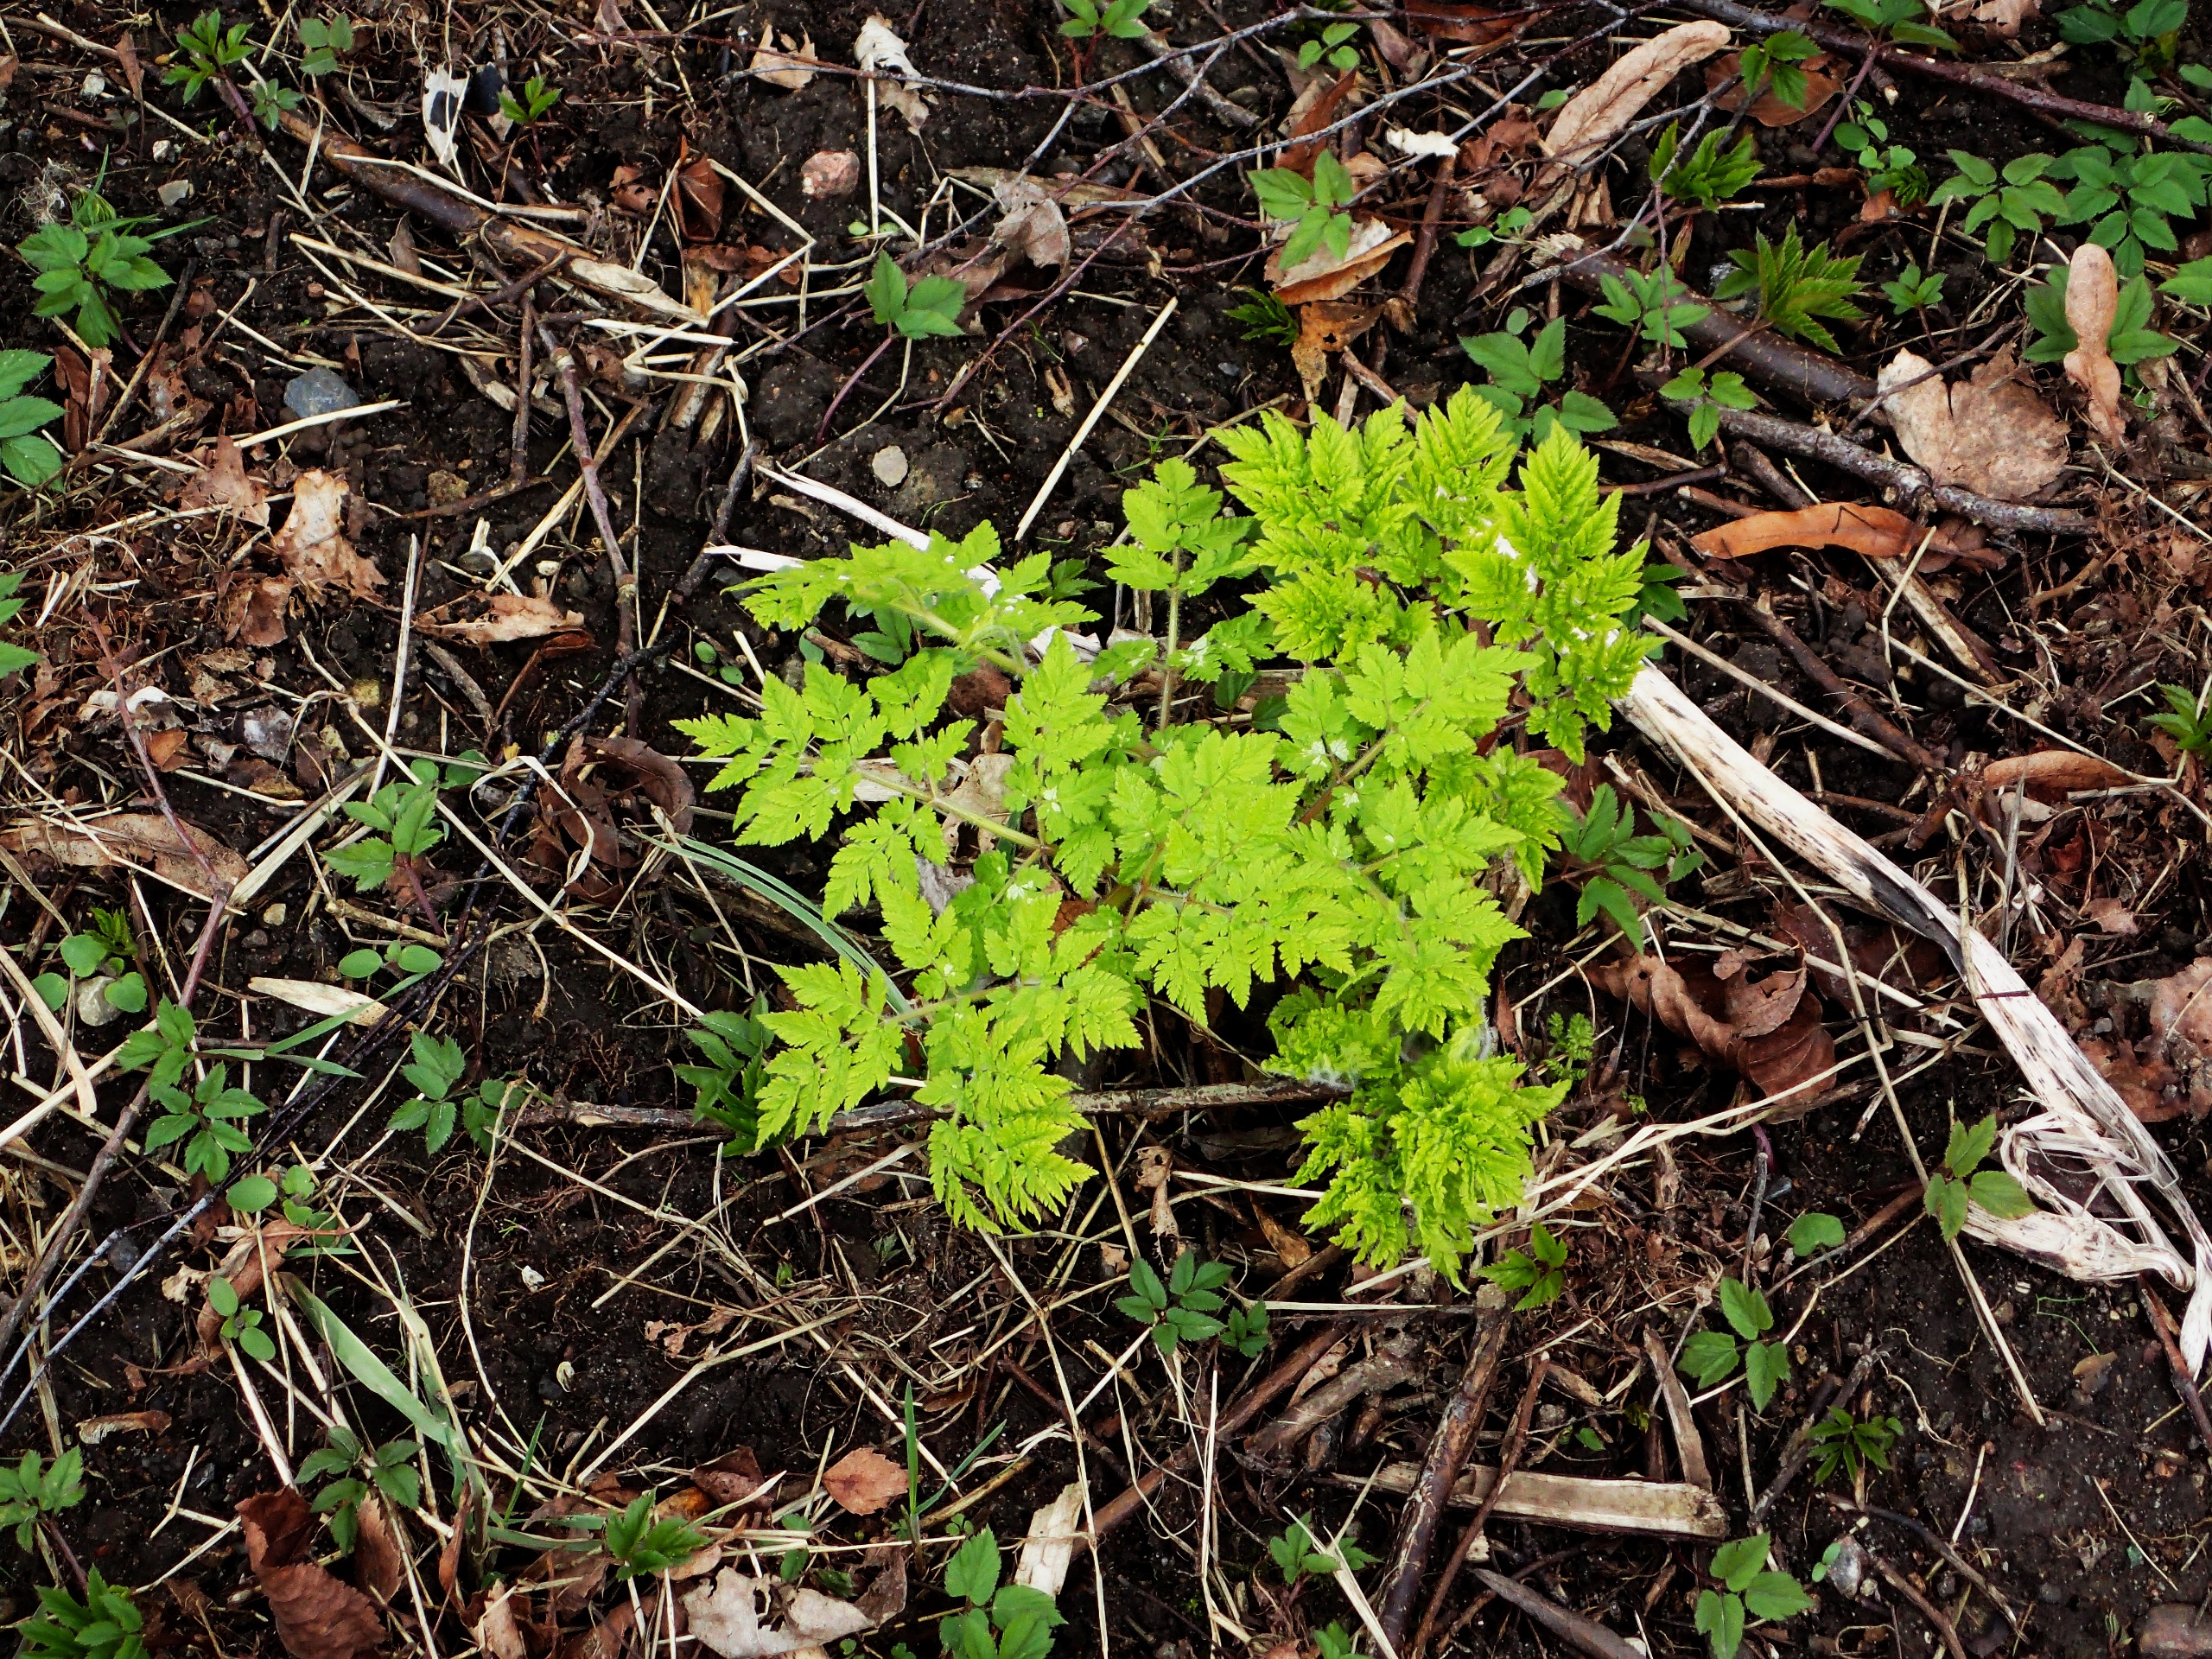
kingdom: Plantae
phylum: Tracheophyta
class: Magnoliopsida
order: Apiales
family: Apiaceae
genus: Myrrhis
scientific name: Myrrhis odorata
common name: Sødskærm
